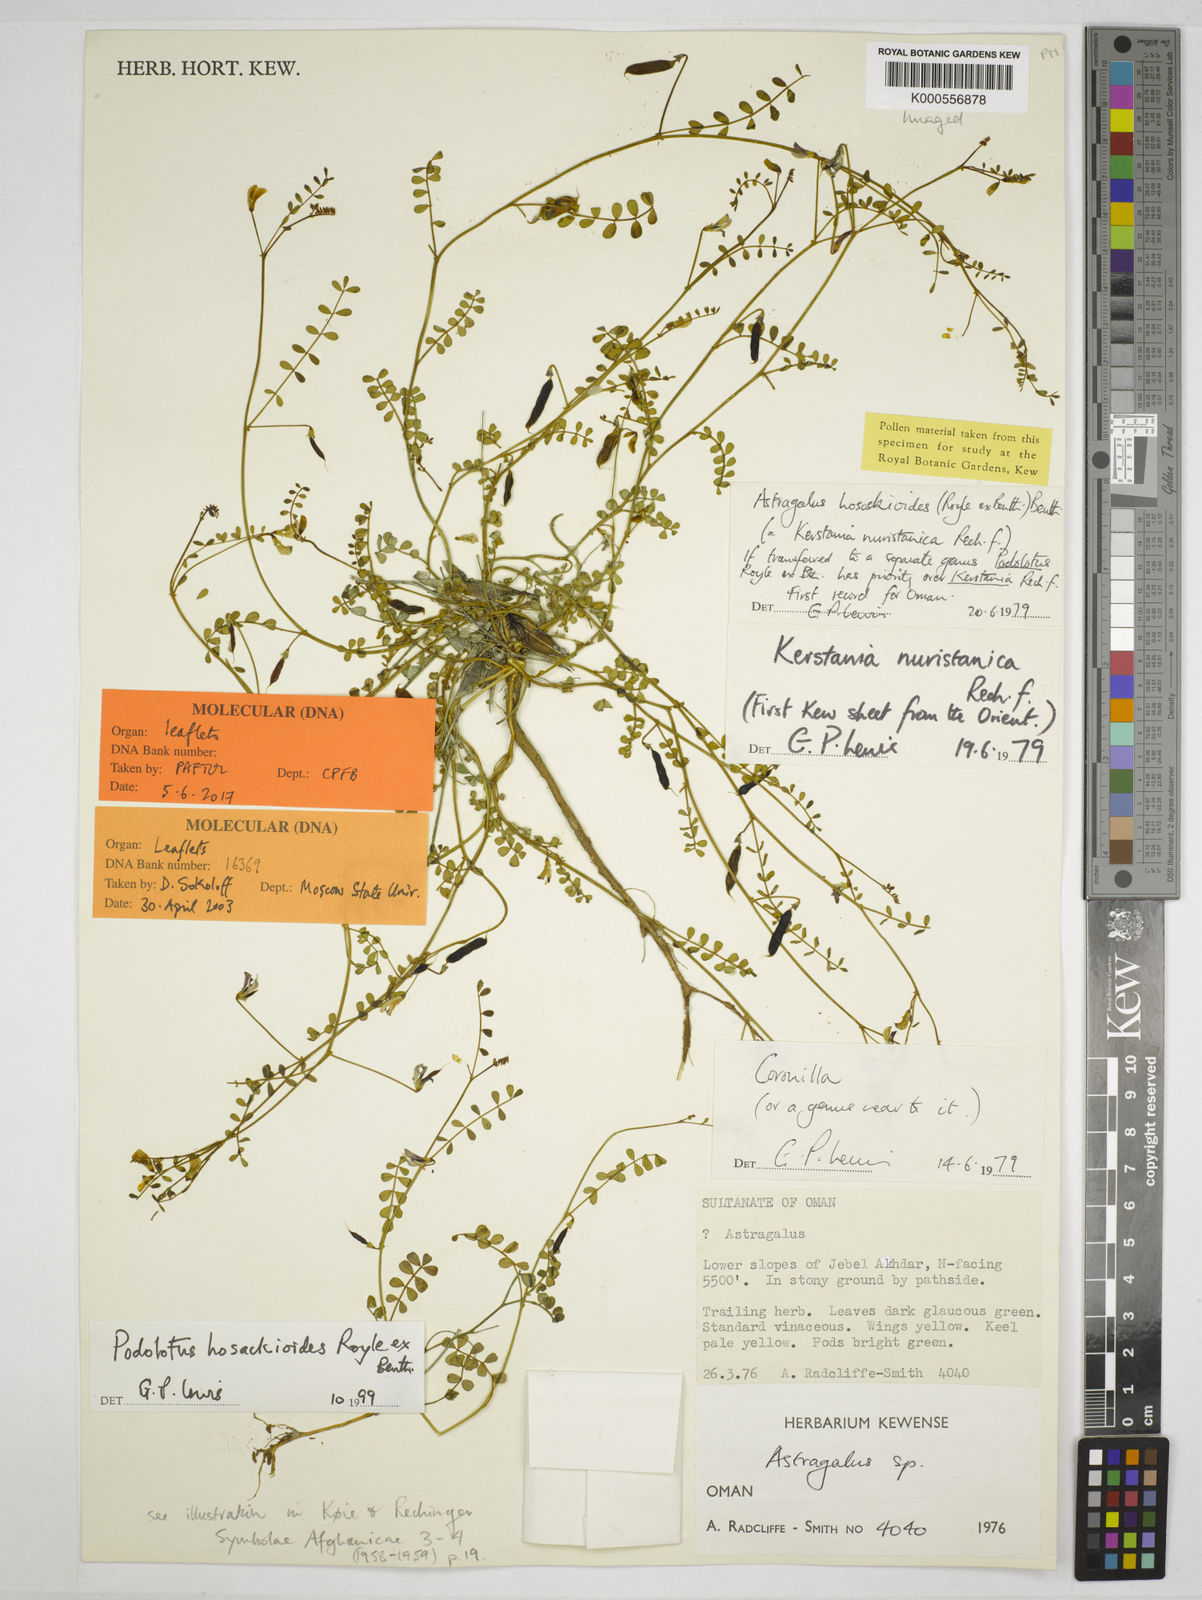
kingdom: Plantae
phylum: Tracheophyta
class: Magnoliopsida
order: Fabales
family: Fabaceae
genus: Podolotus
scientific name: Podolotus hosackioides
